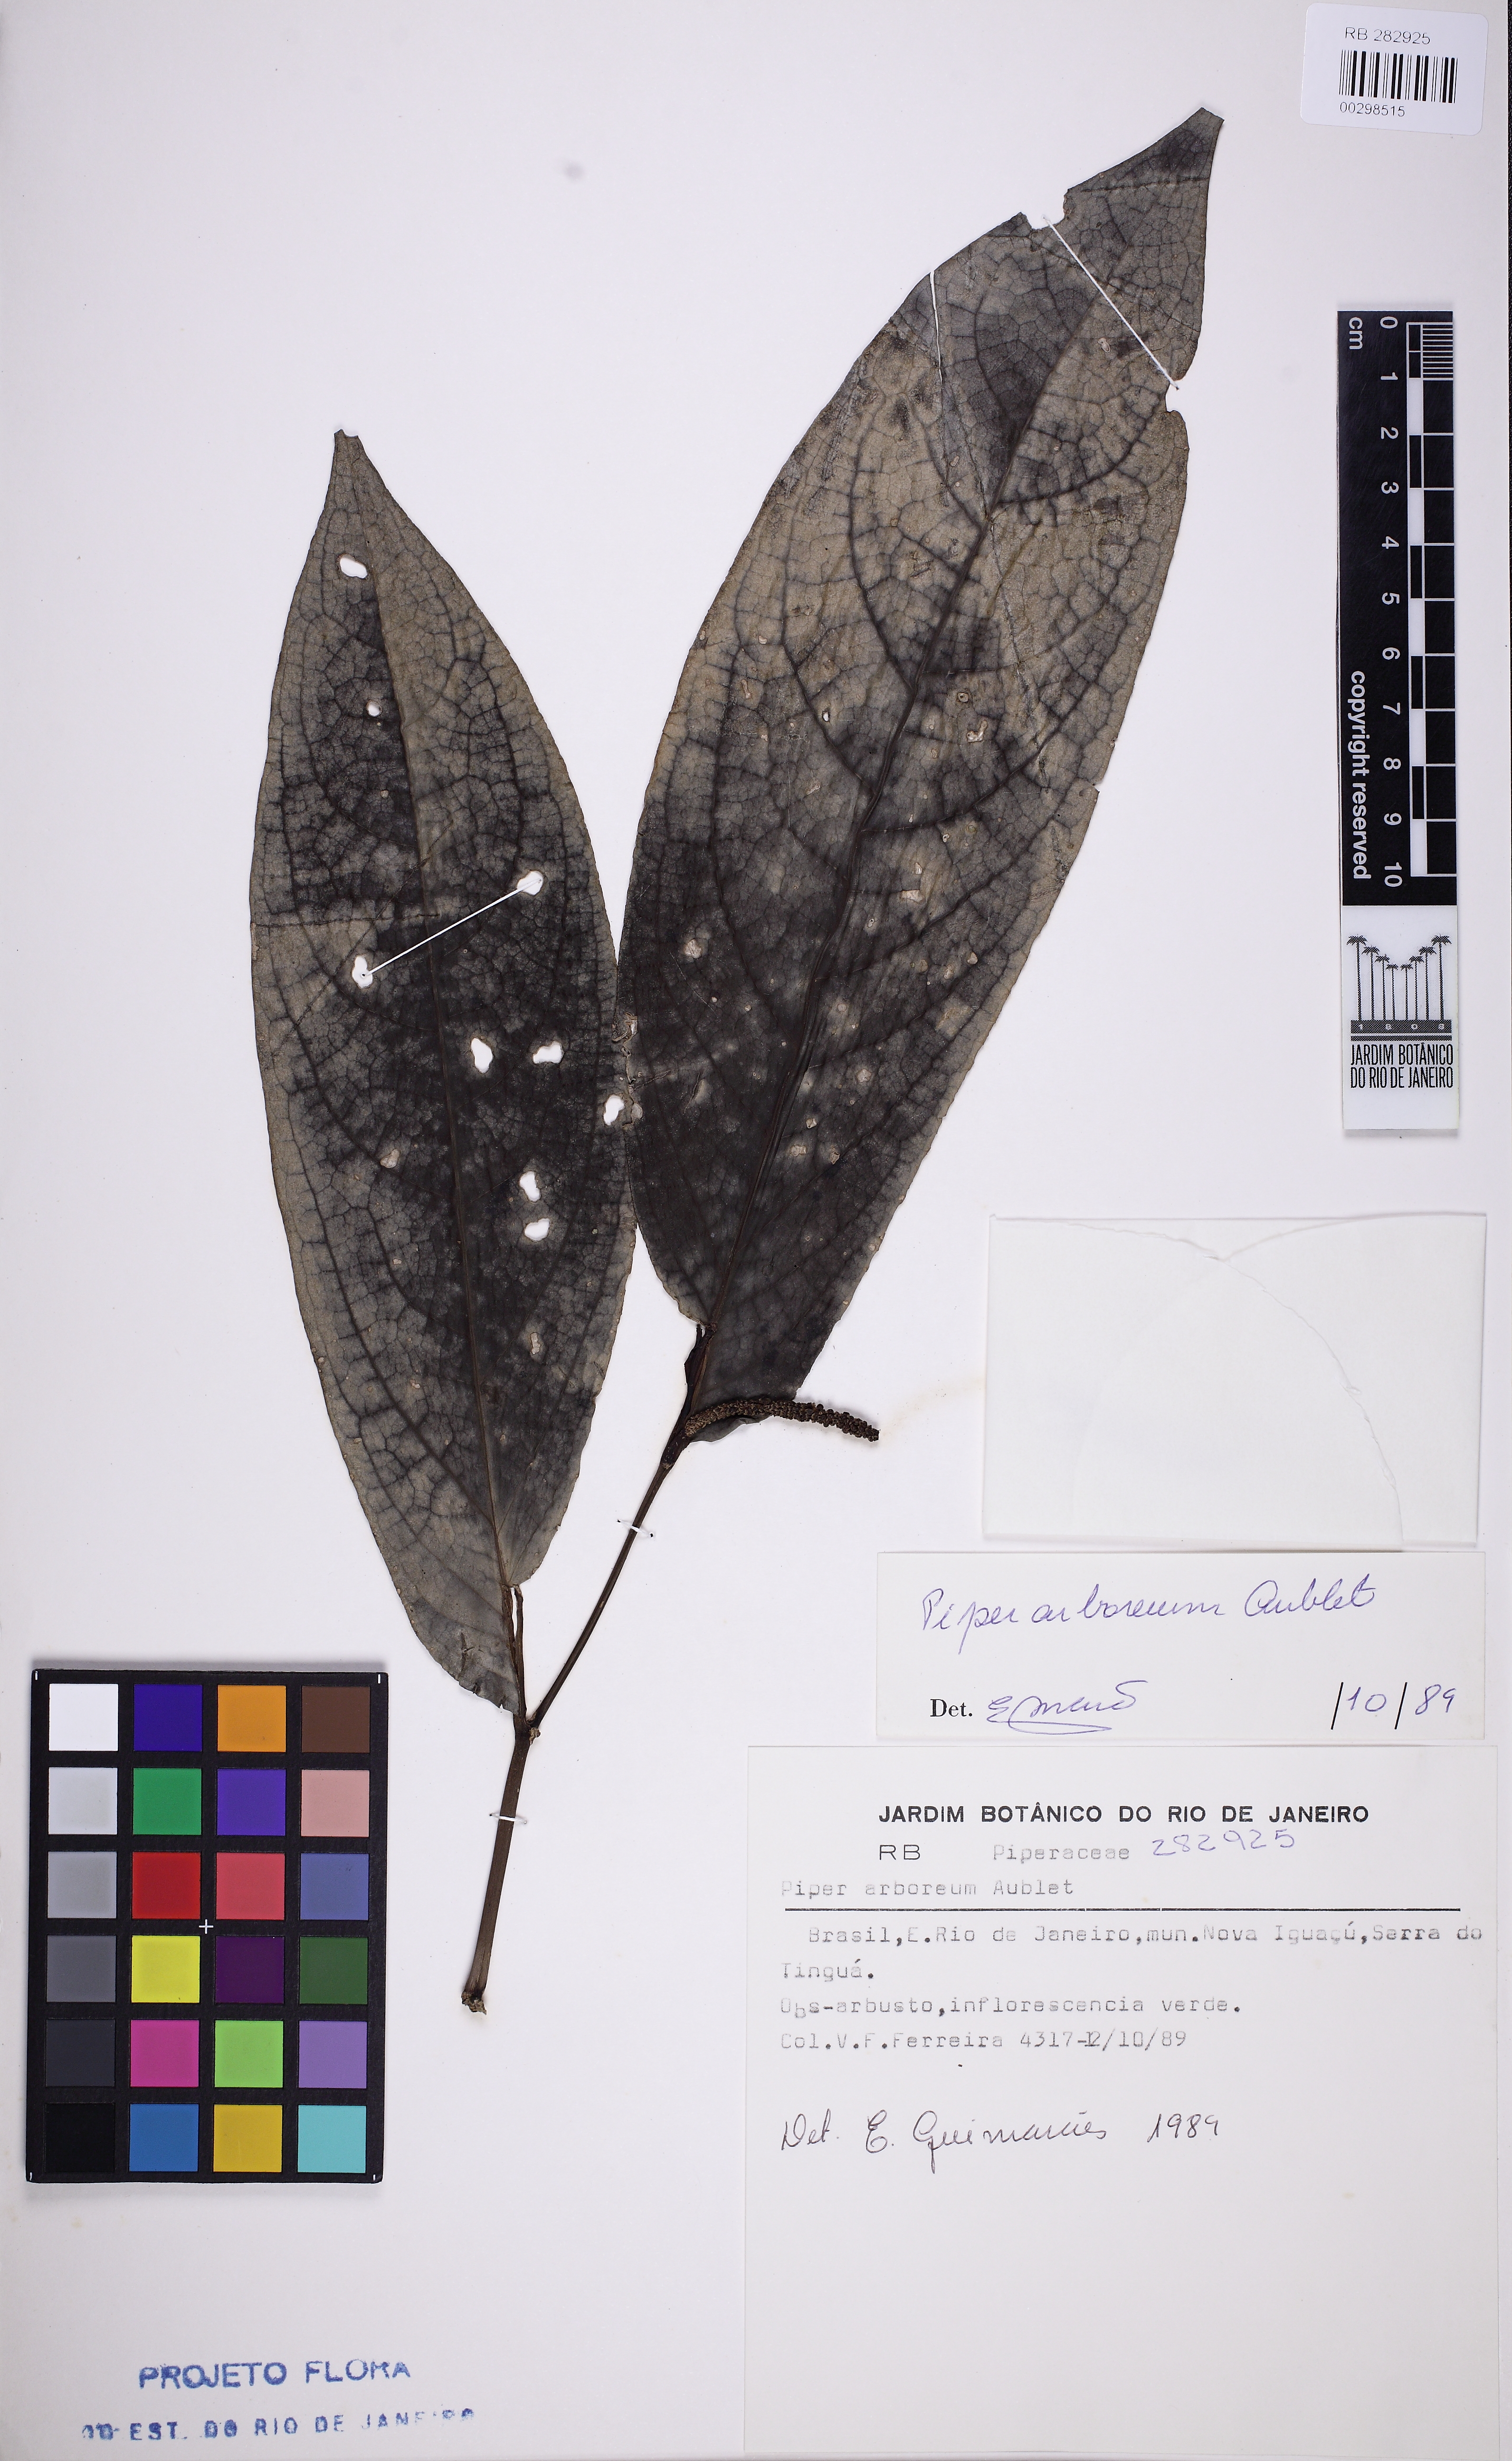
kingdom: Plantae
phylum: Tracheophyta
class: Magnoliopsida
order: Piperales
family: Piperaceae
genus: Piper
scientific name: Piper arboreum
